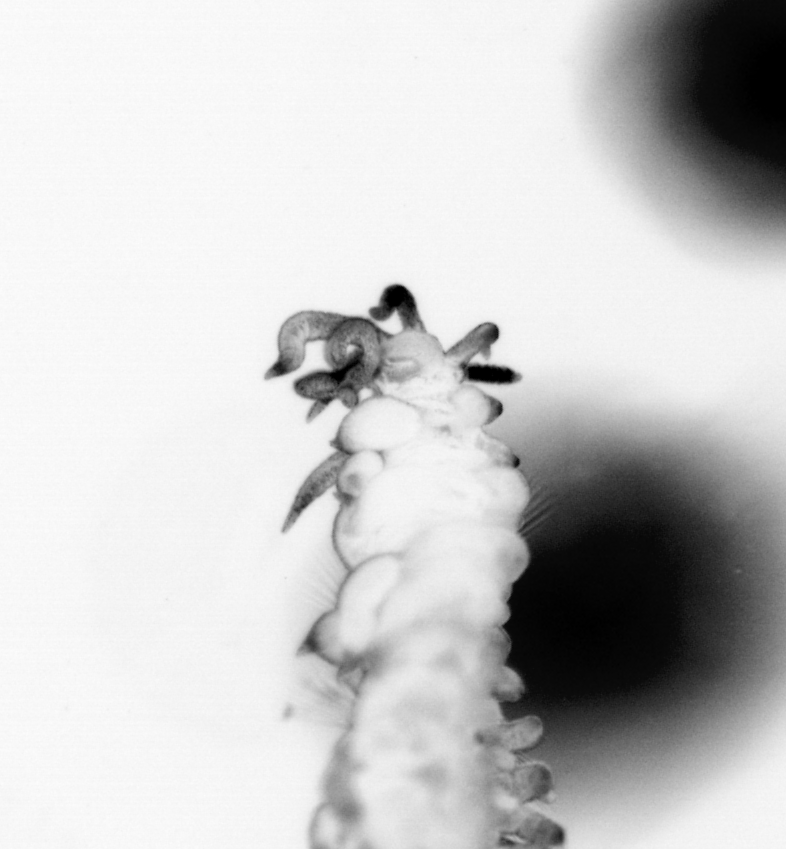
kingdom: Animalia
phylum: Annelida
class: Polychaeta
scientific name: Polychaeta
